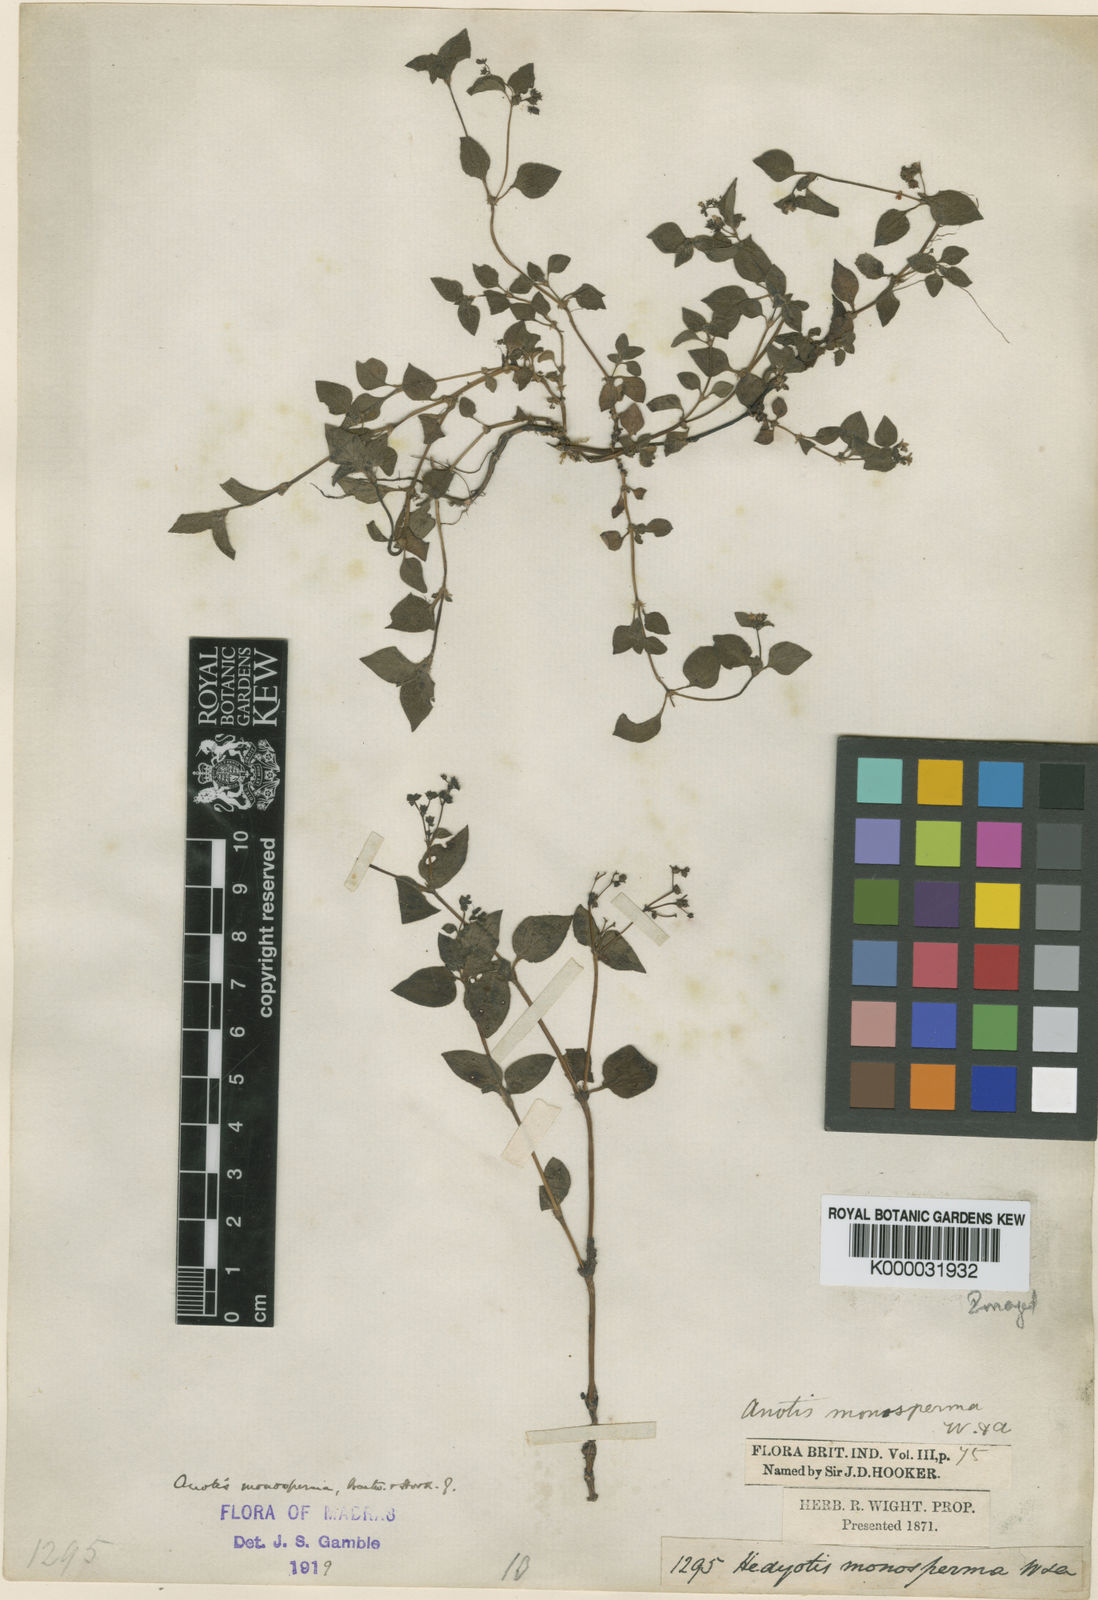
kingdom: Plantae
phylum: Tracheophyta
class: Magnoliopsida
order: Gentianales
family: Rubiaceae
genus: Neanotis
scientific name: Neanotis monosperma
